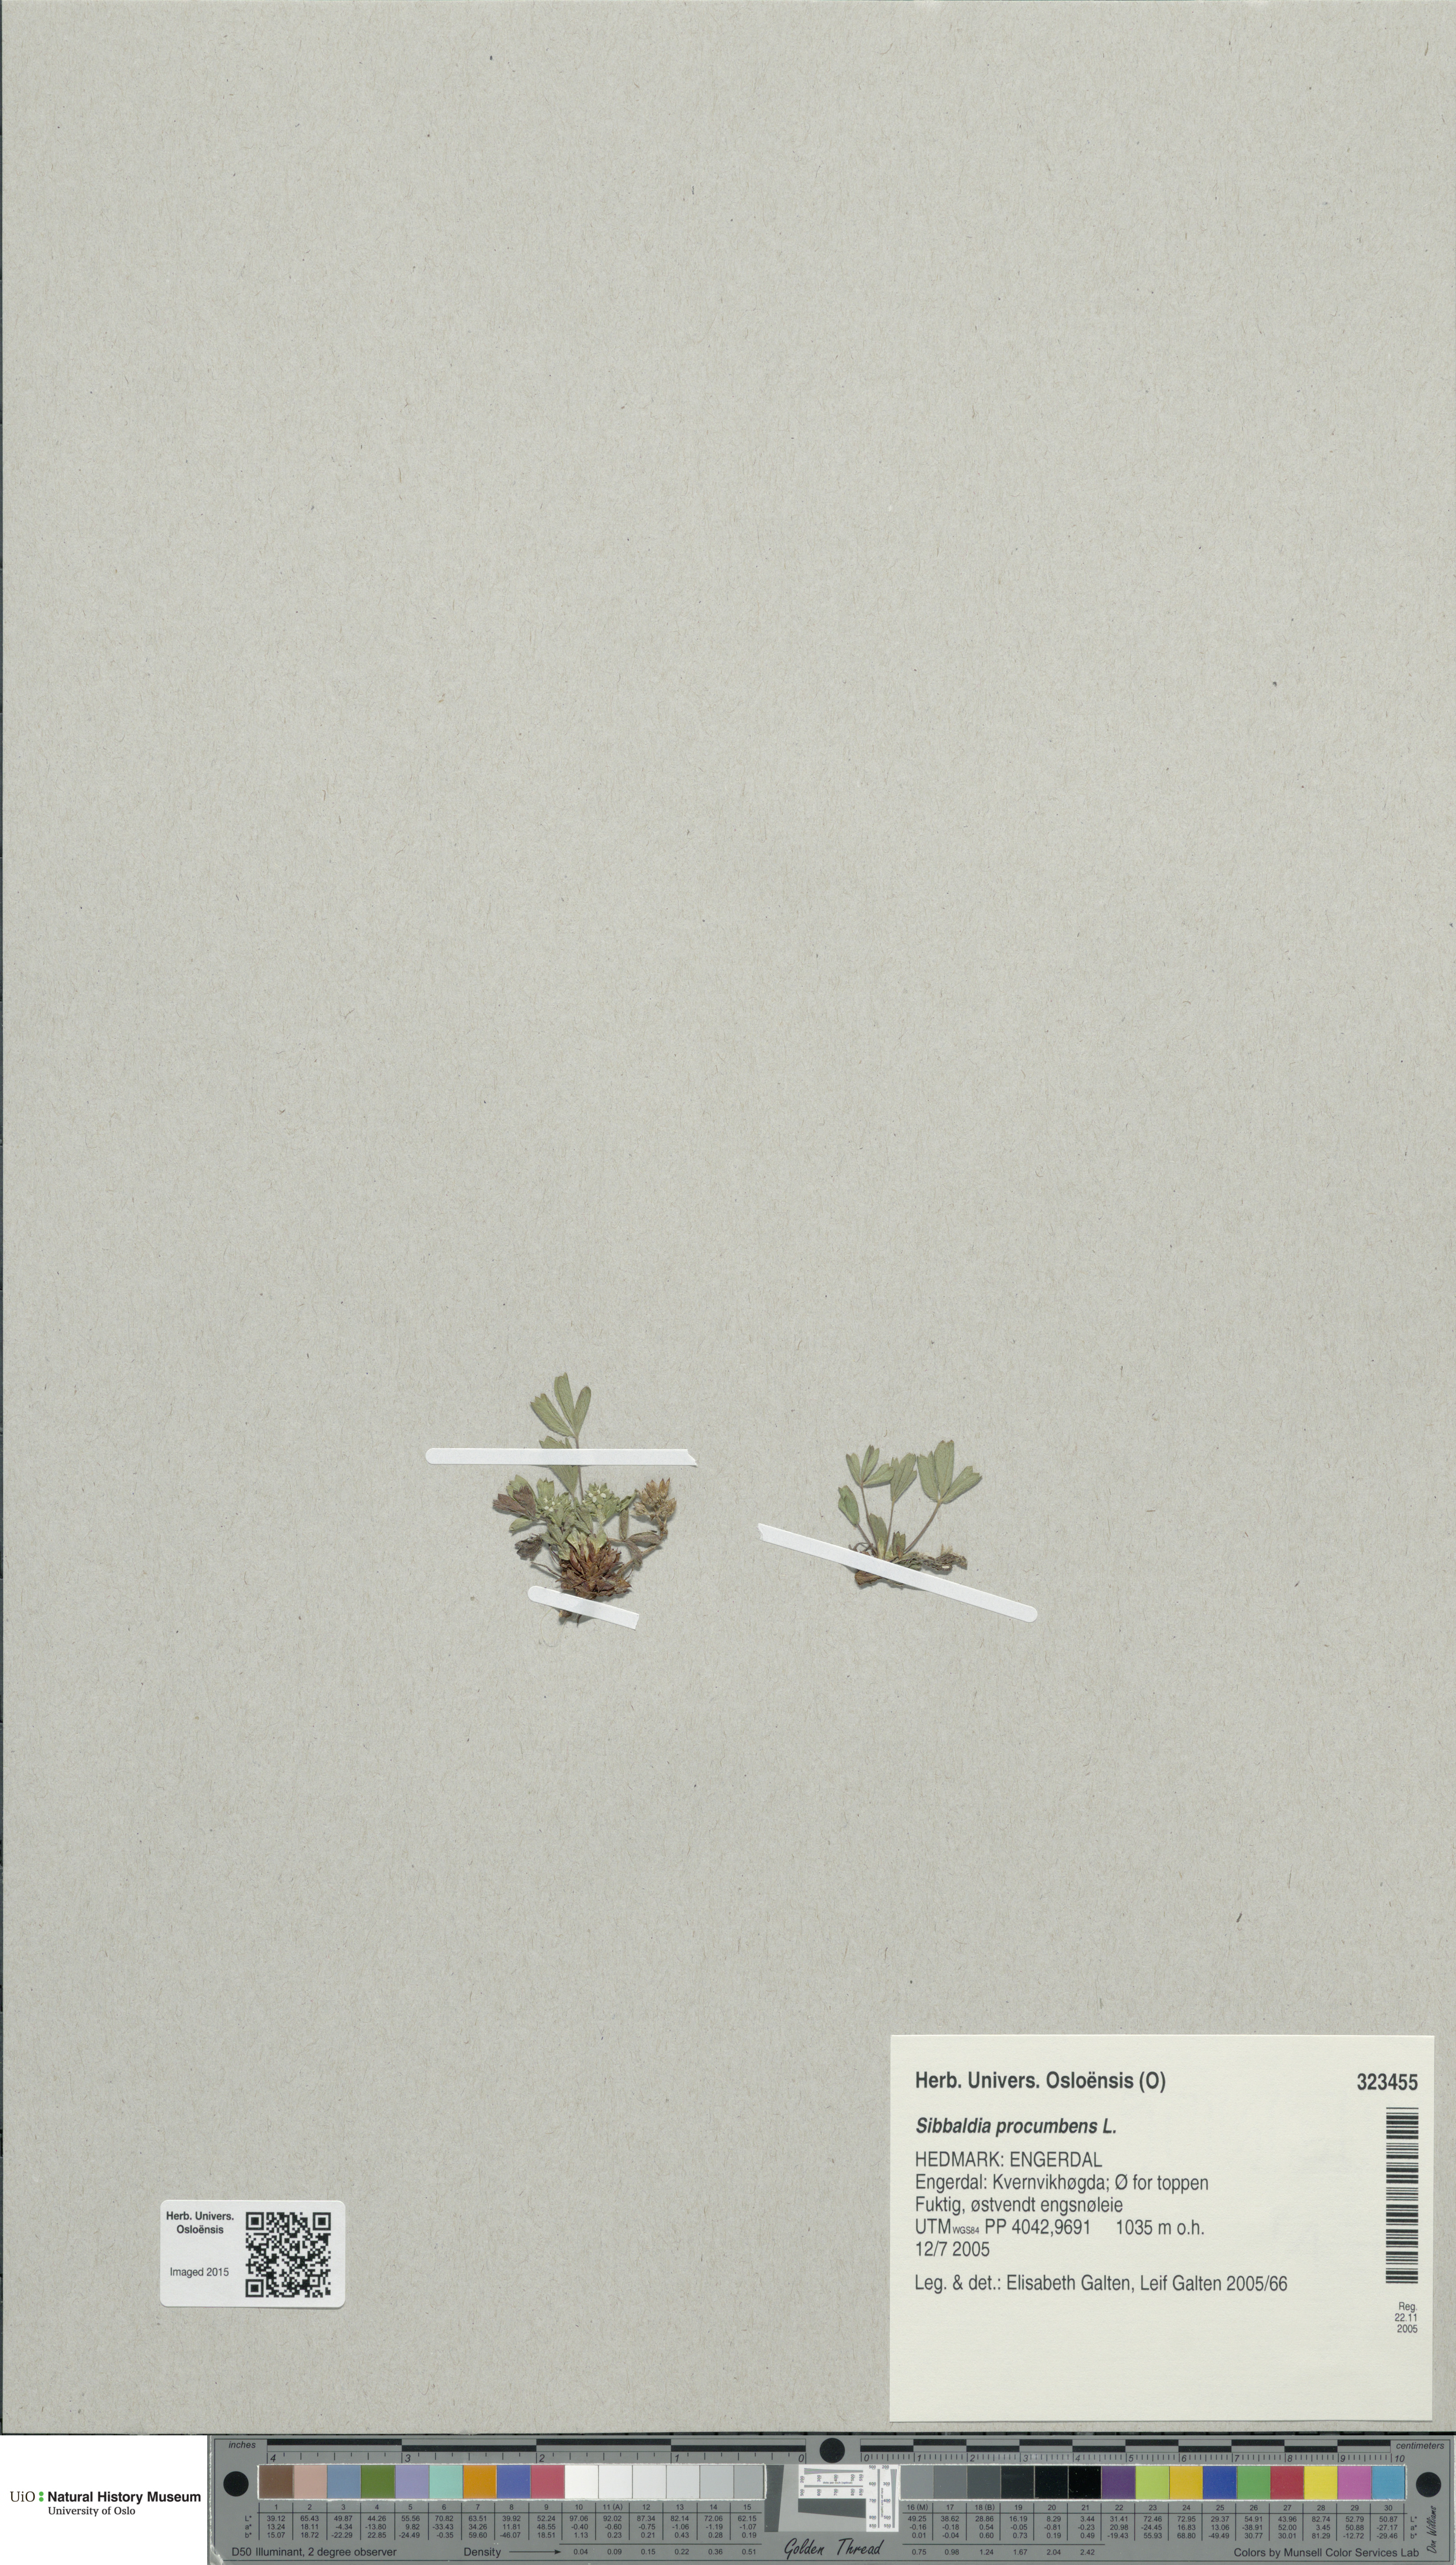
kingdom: Plantae
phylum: Tracheophyta
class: Magnoliopsida
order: Rosales
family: Rosaceae
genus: Sibbaldia
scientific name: Sibbaldia procumbens
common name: Creeping sibbaldia
